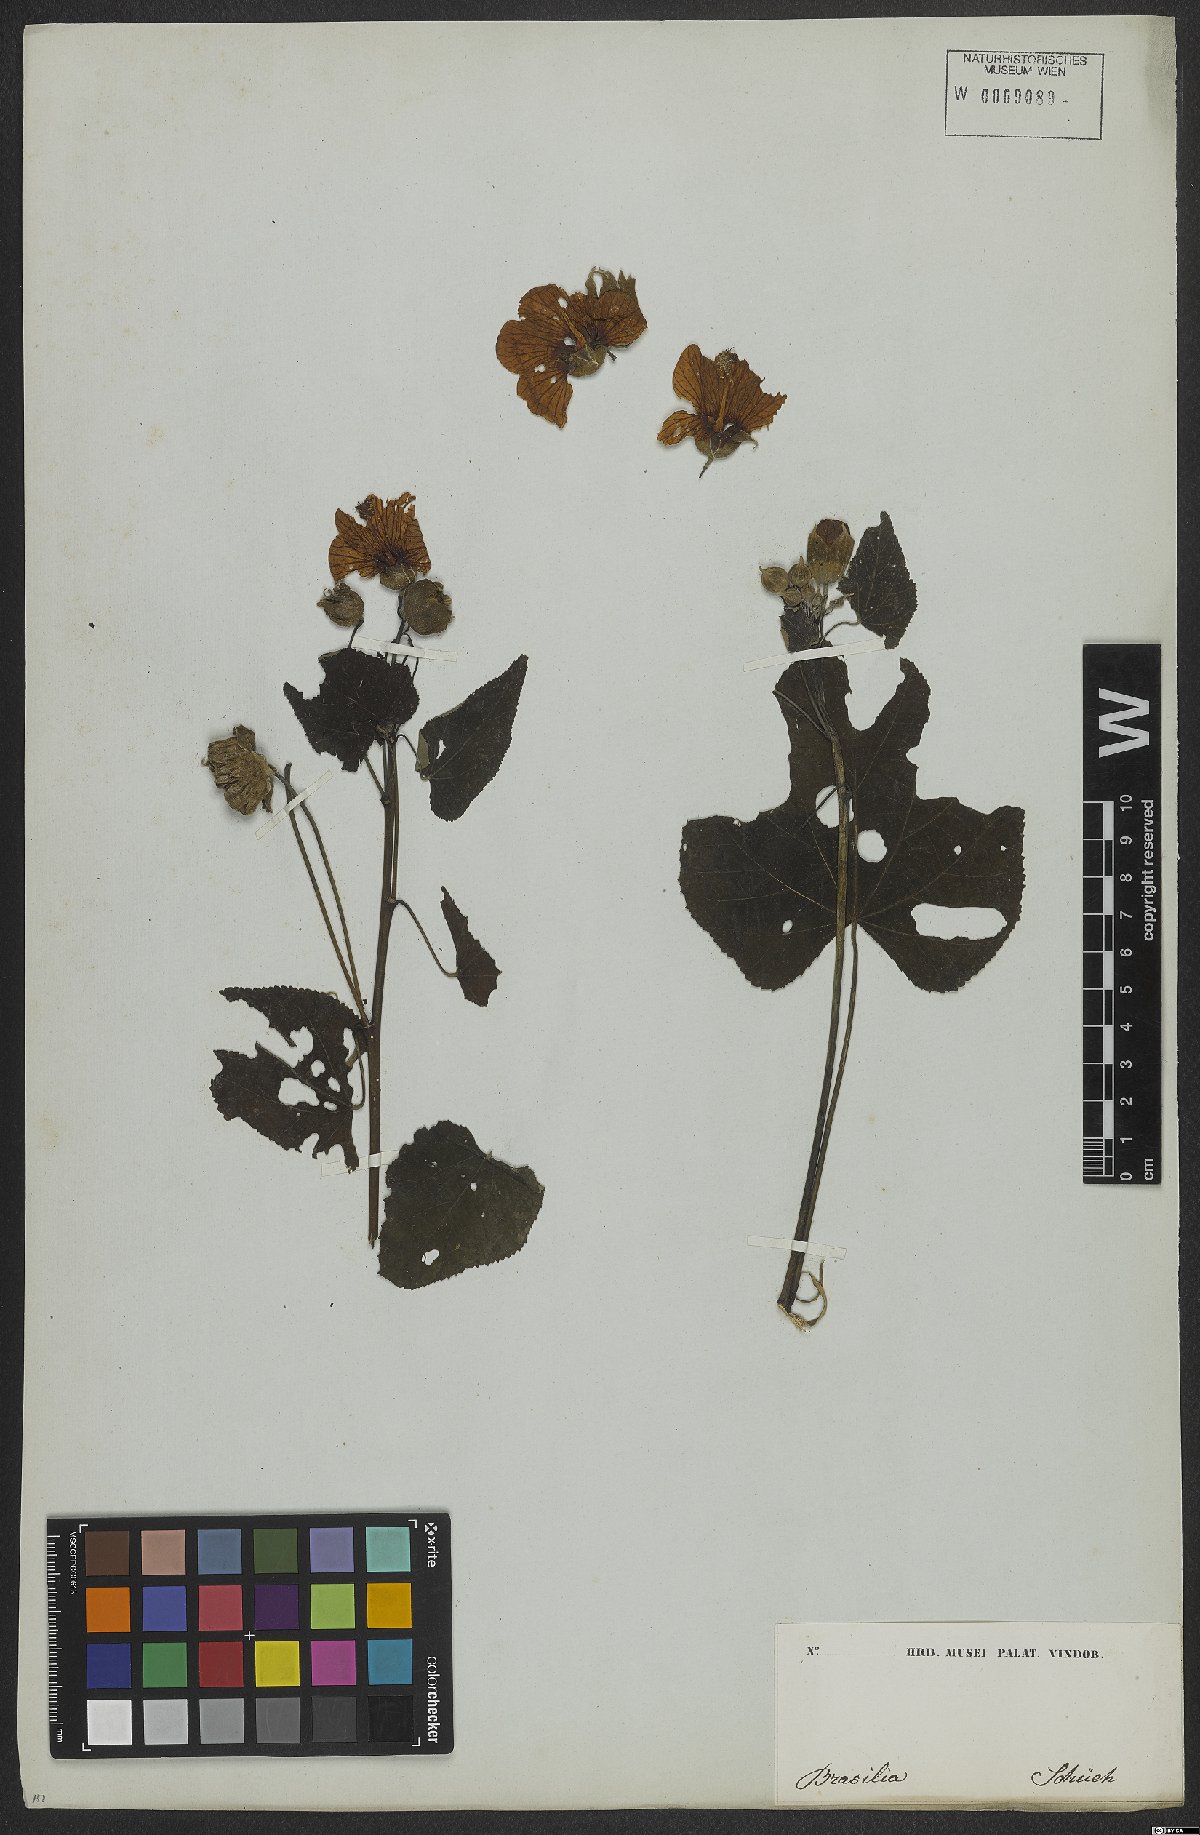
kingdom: Plantae
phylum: Tracheophyta
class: Magnoliopsida
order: Malvales
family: Malvaceae
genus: Callianthe
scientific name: Callianthe bedfordiana
